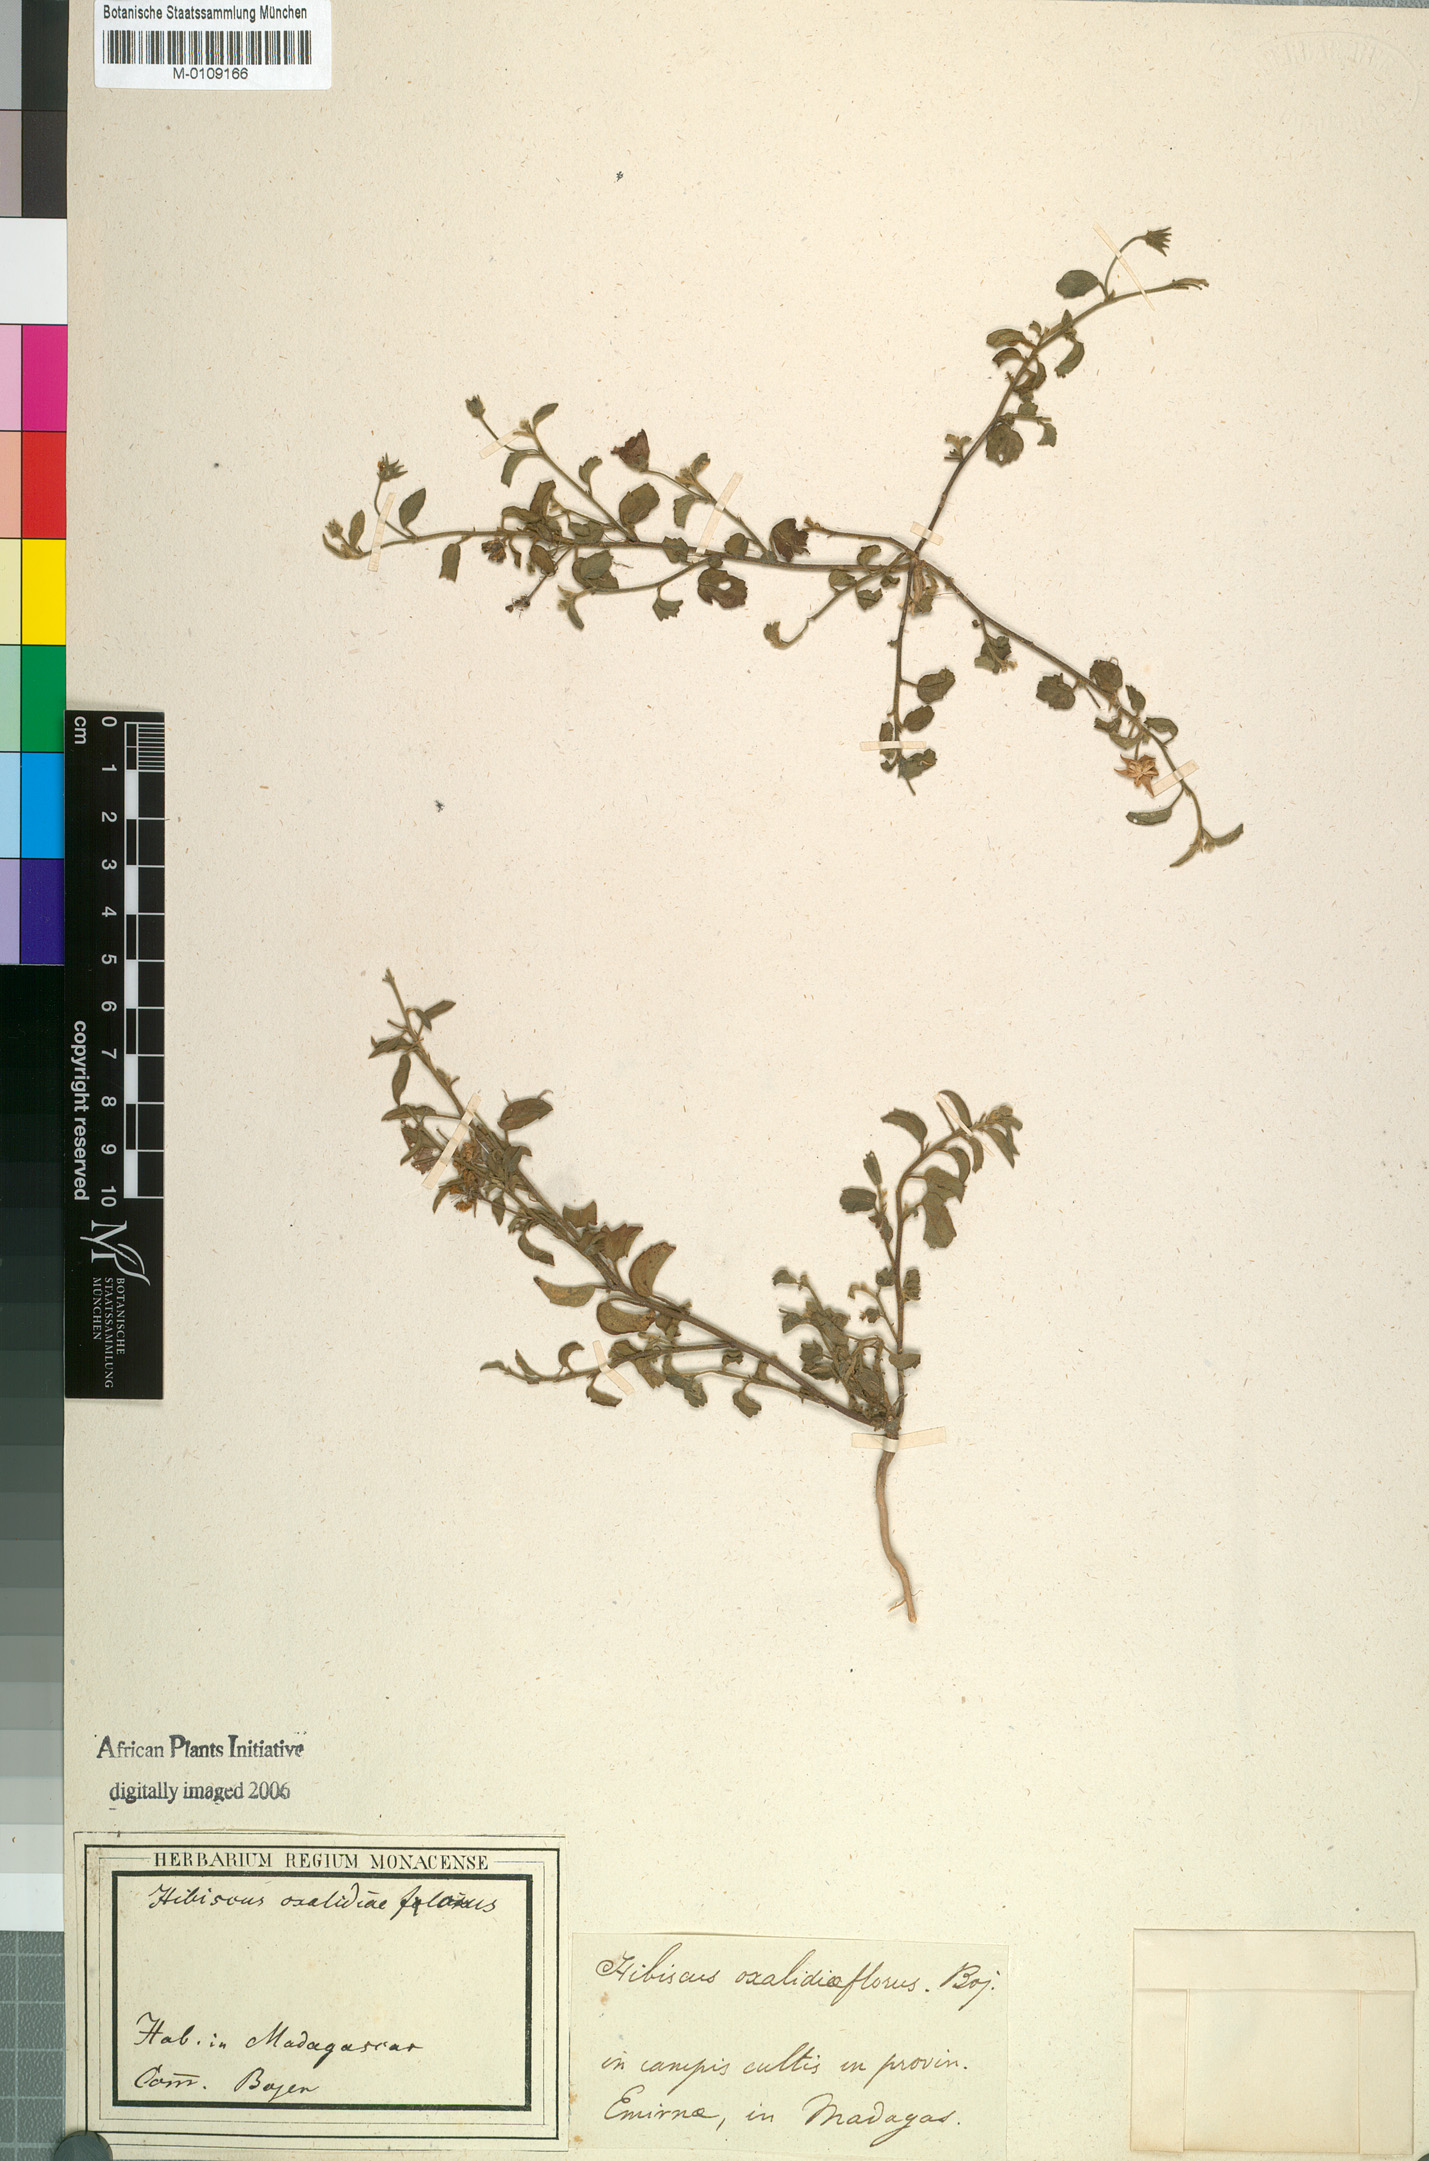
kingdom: Plantae
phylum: Tracheophyta
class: Magnoliopsida
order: Malvales
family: Malvaceae
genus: Hibiscus
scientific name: Hibiscus oxaliflorus
